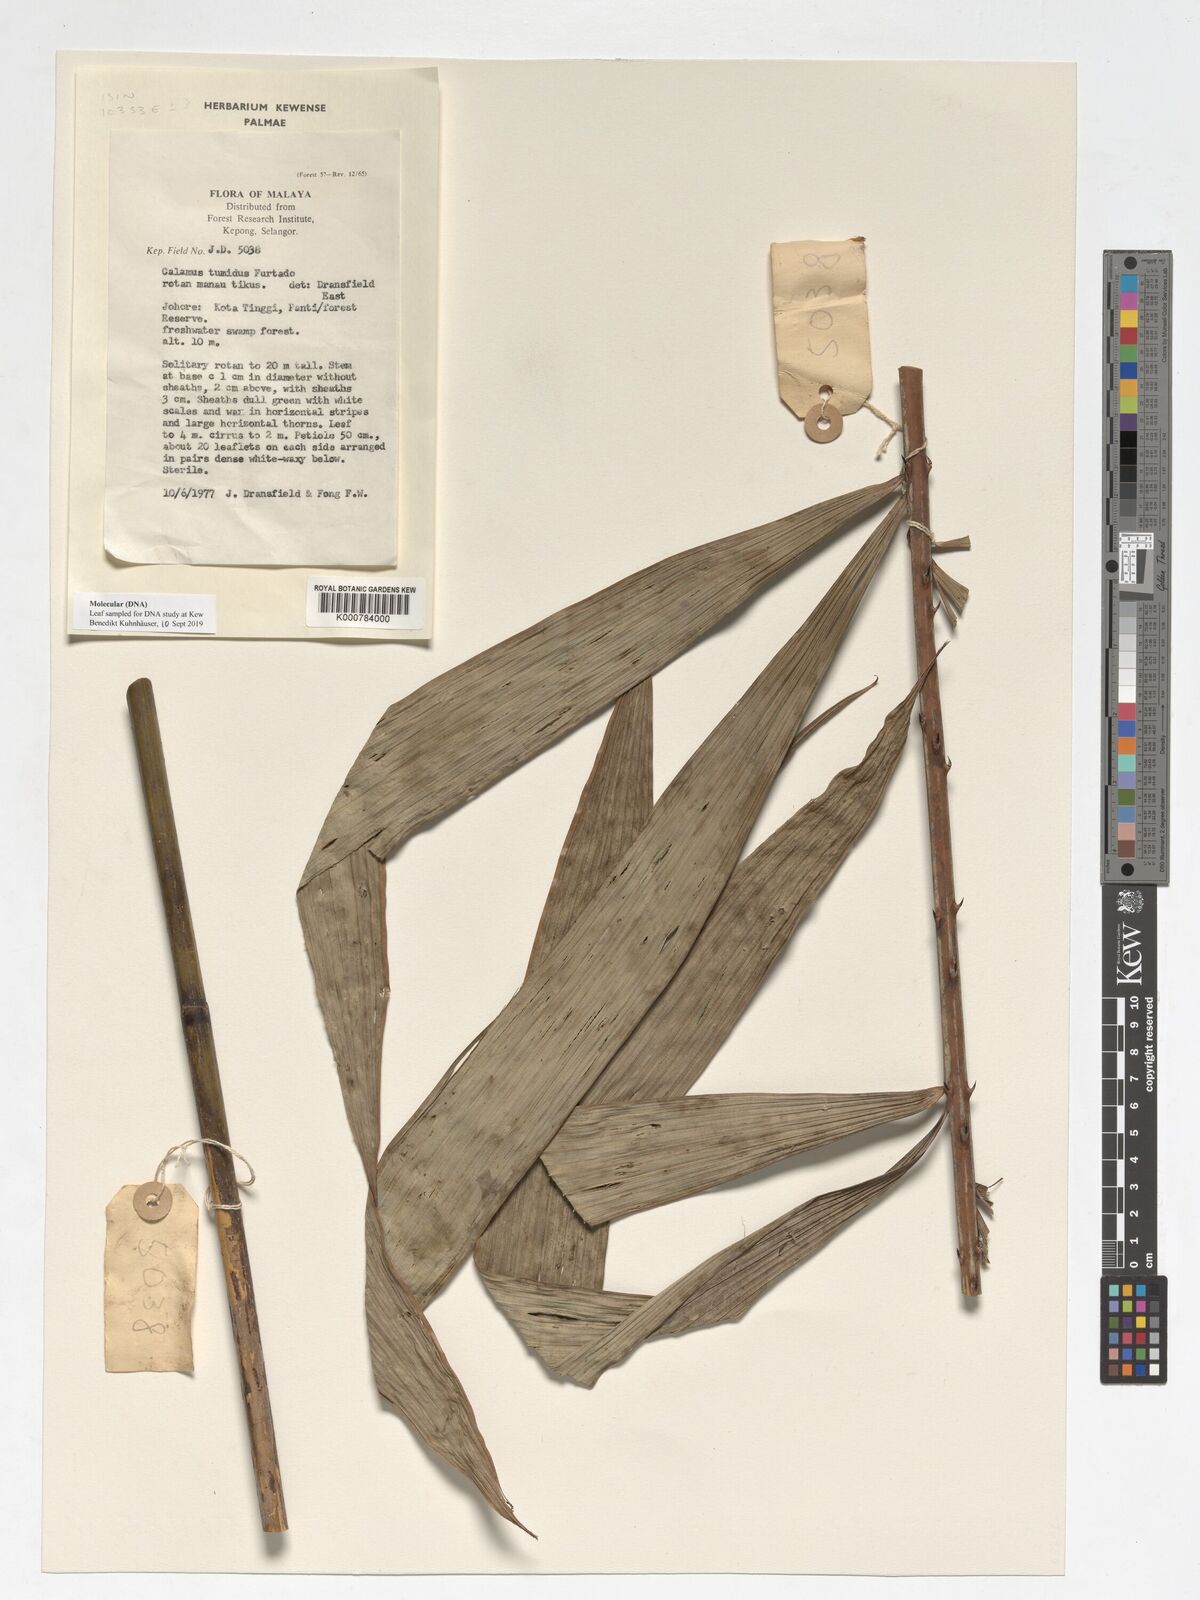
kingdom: Plantae
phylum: Tracheophyta
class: Liliopsida
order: Arecales
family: Arecaceae
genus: Calamus
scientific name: Calamus tumidus
